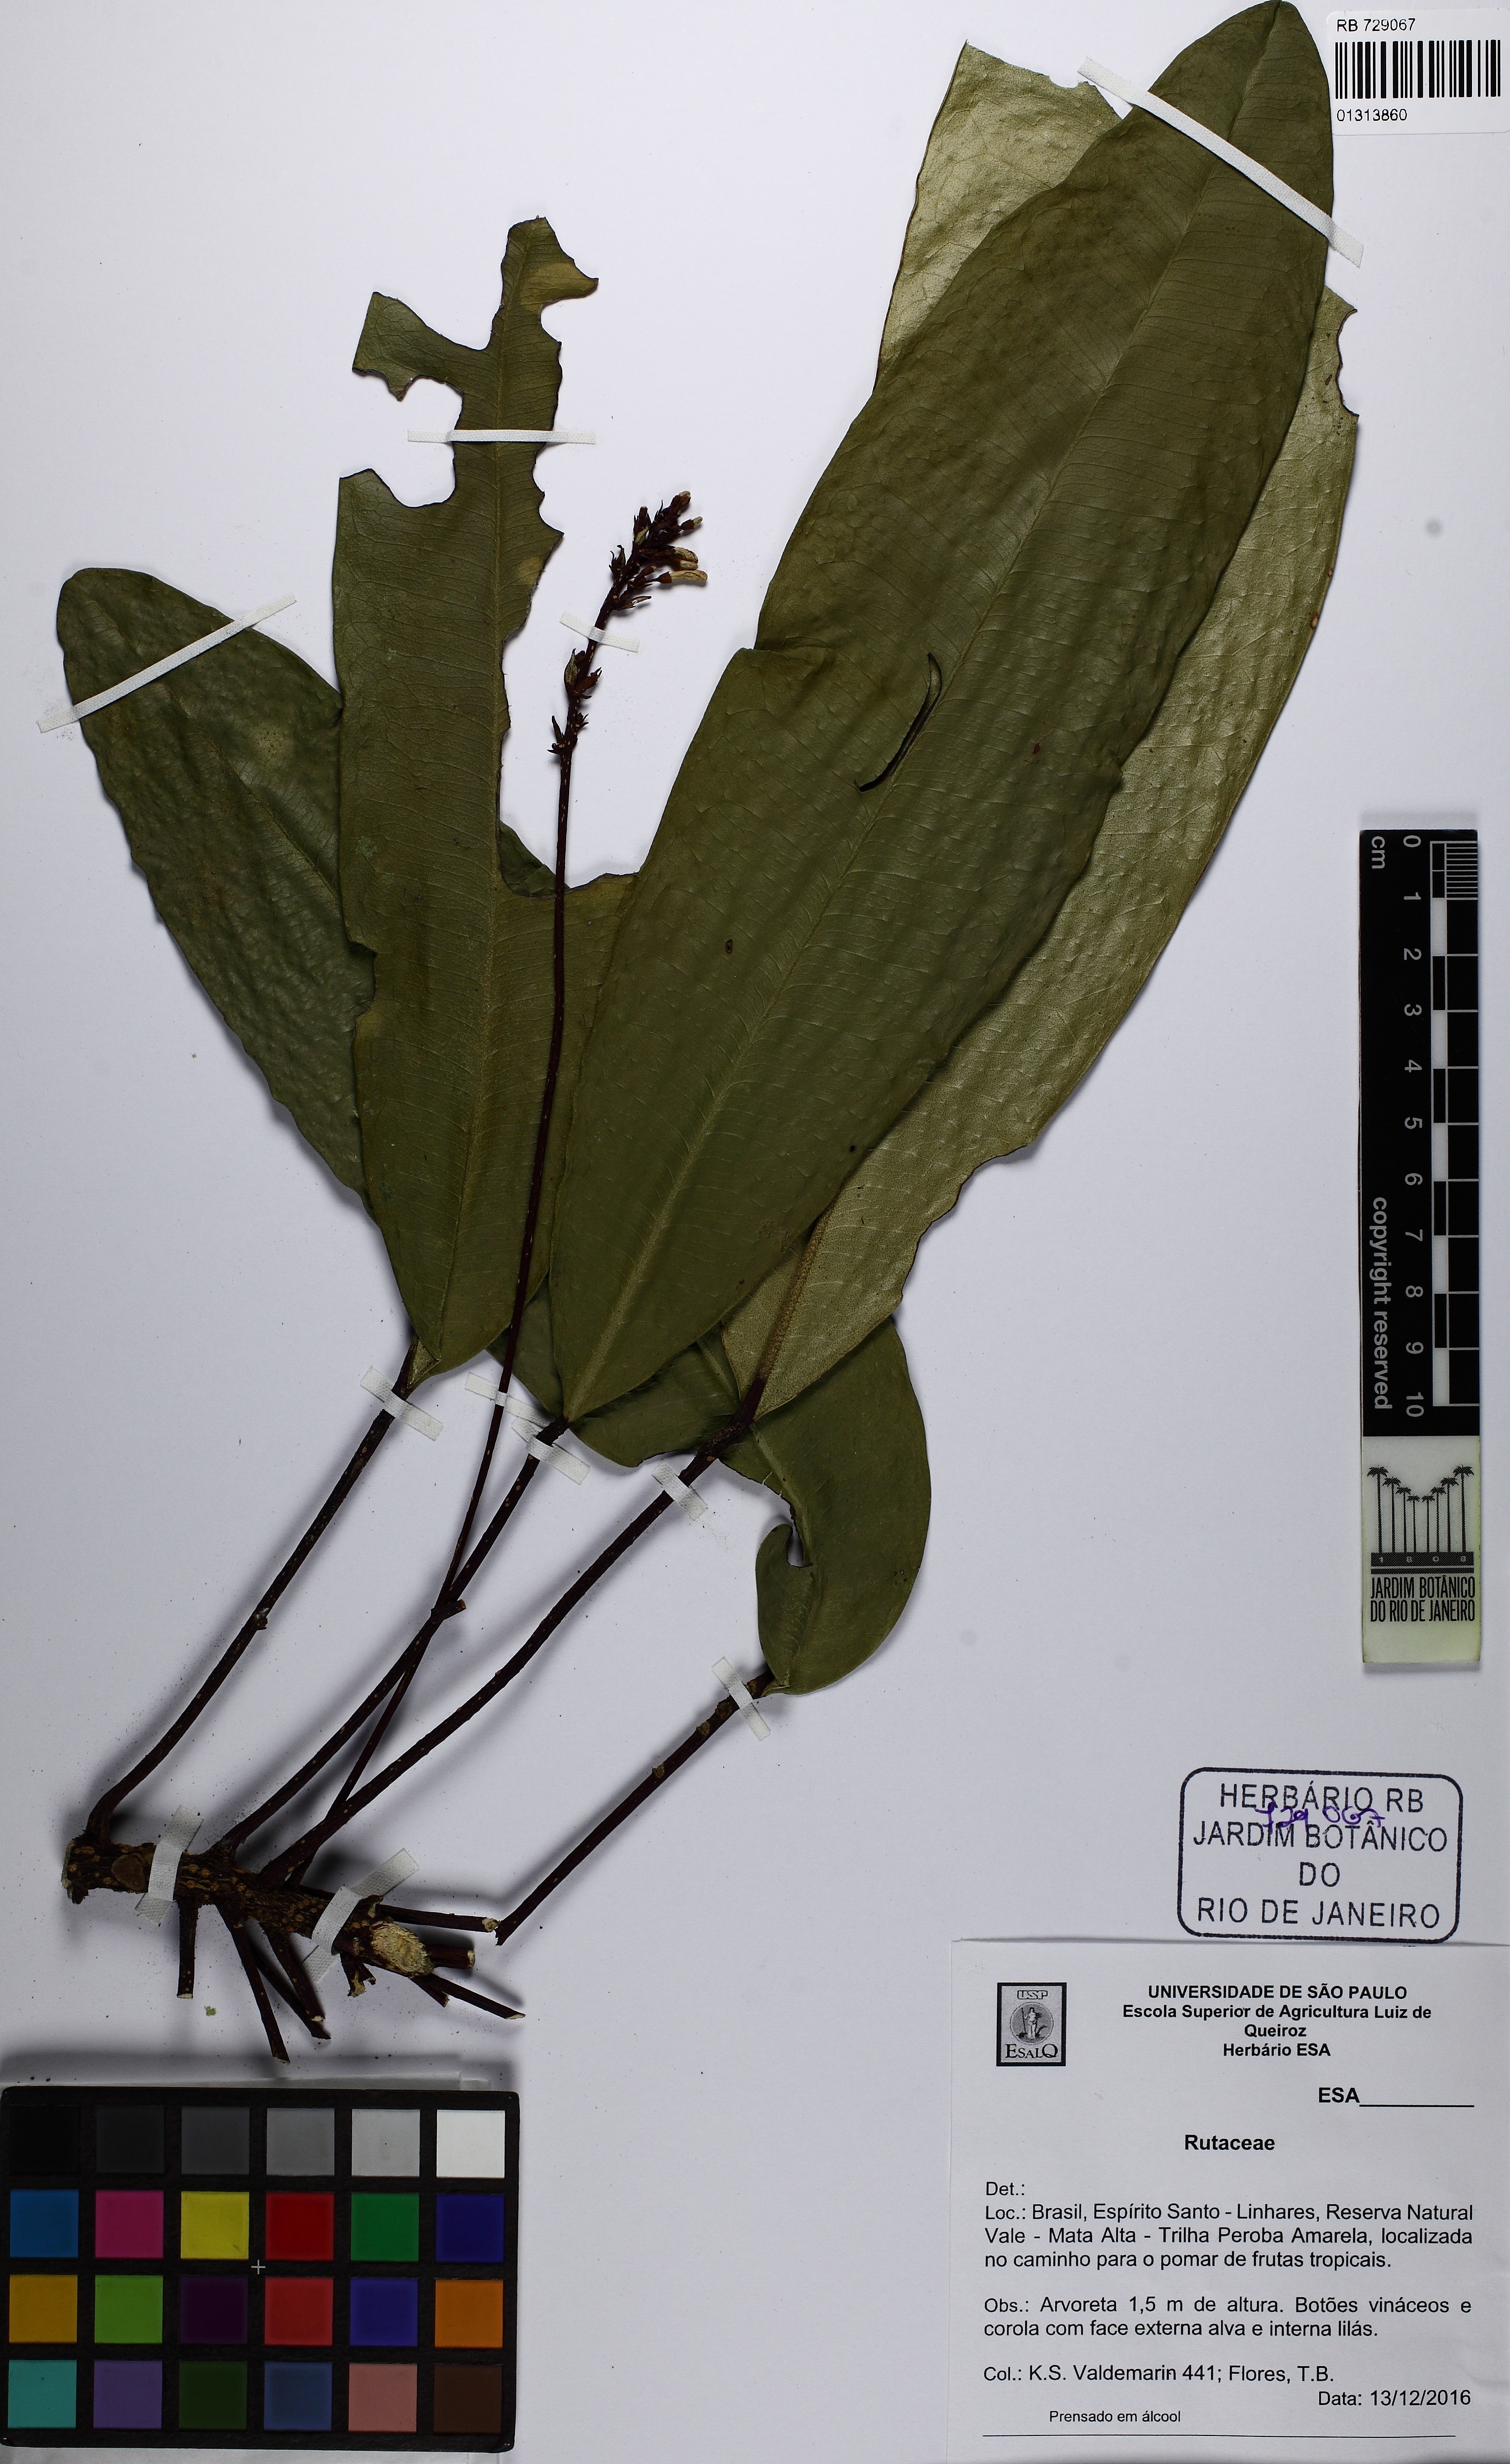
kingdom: Plantae
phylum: Tracheophyta
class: Magnoliopsida
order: Sapindales
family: Rutaceae
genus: Conchocarpus
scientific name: Conchocarpus macrophyllus
